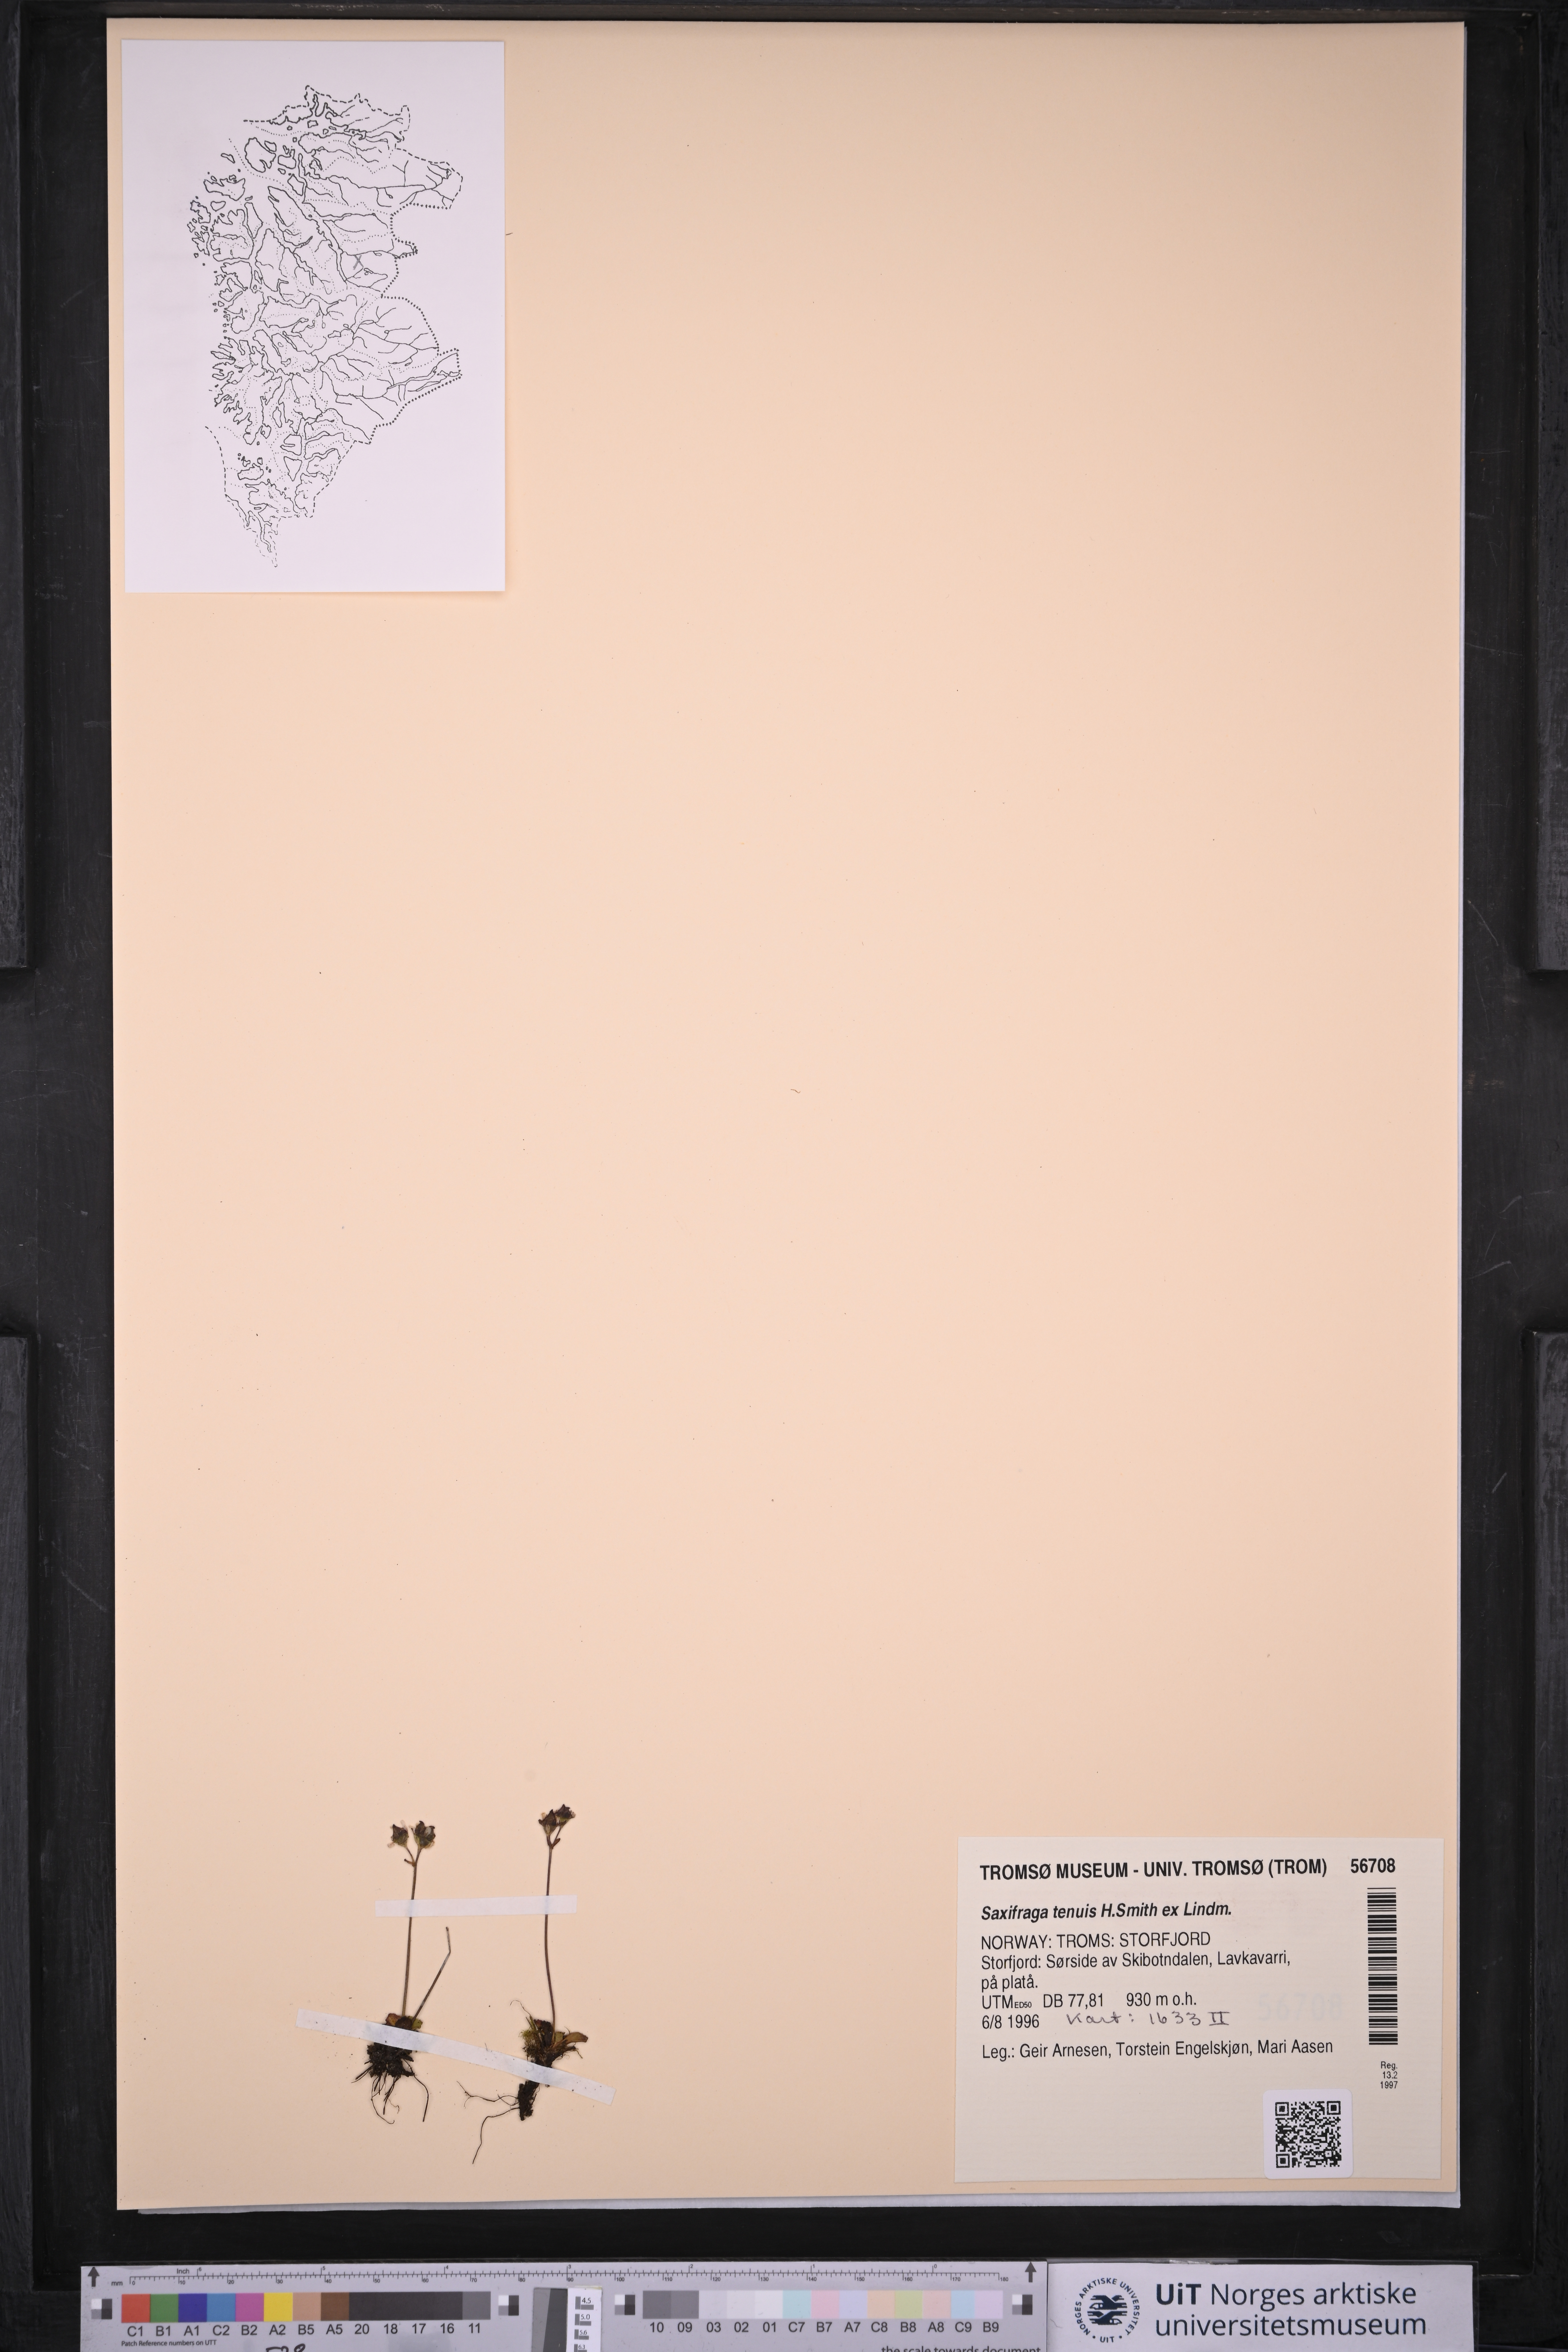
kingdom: Plantae
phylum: Tracheophyta
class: Magnoliopsida
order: Saxifragales
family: Saxifragaceae
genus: Micranthes
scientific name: Micranthes tenuis
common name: Ottertail pass saxifrage
